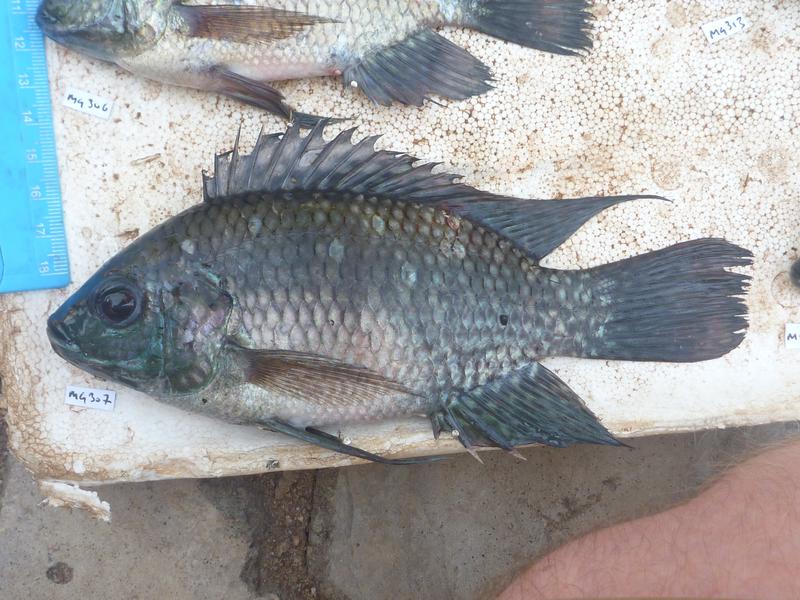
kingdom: Animalia
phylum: Chordata
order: Perciformes
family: Cichlidae
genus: Oreochromis
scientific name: Oreochromis leucostictus
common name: Blue spotted tilapia
